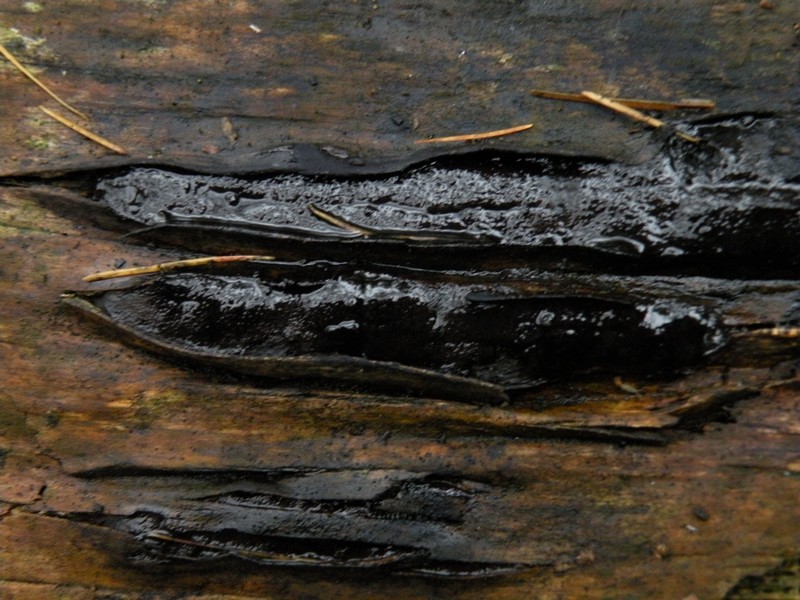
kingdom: Fungi
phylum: Ascomycota
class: Sordariomycetes
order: Boliniales
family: Boliniaceae
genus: Camarops
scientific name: Camarops tubulina
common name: knudret kulsnegl
